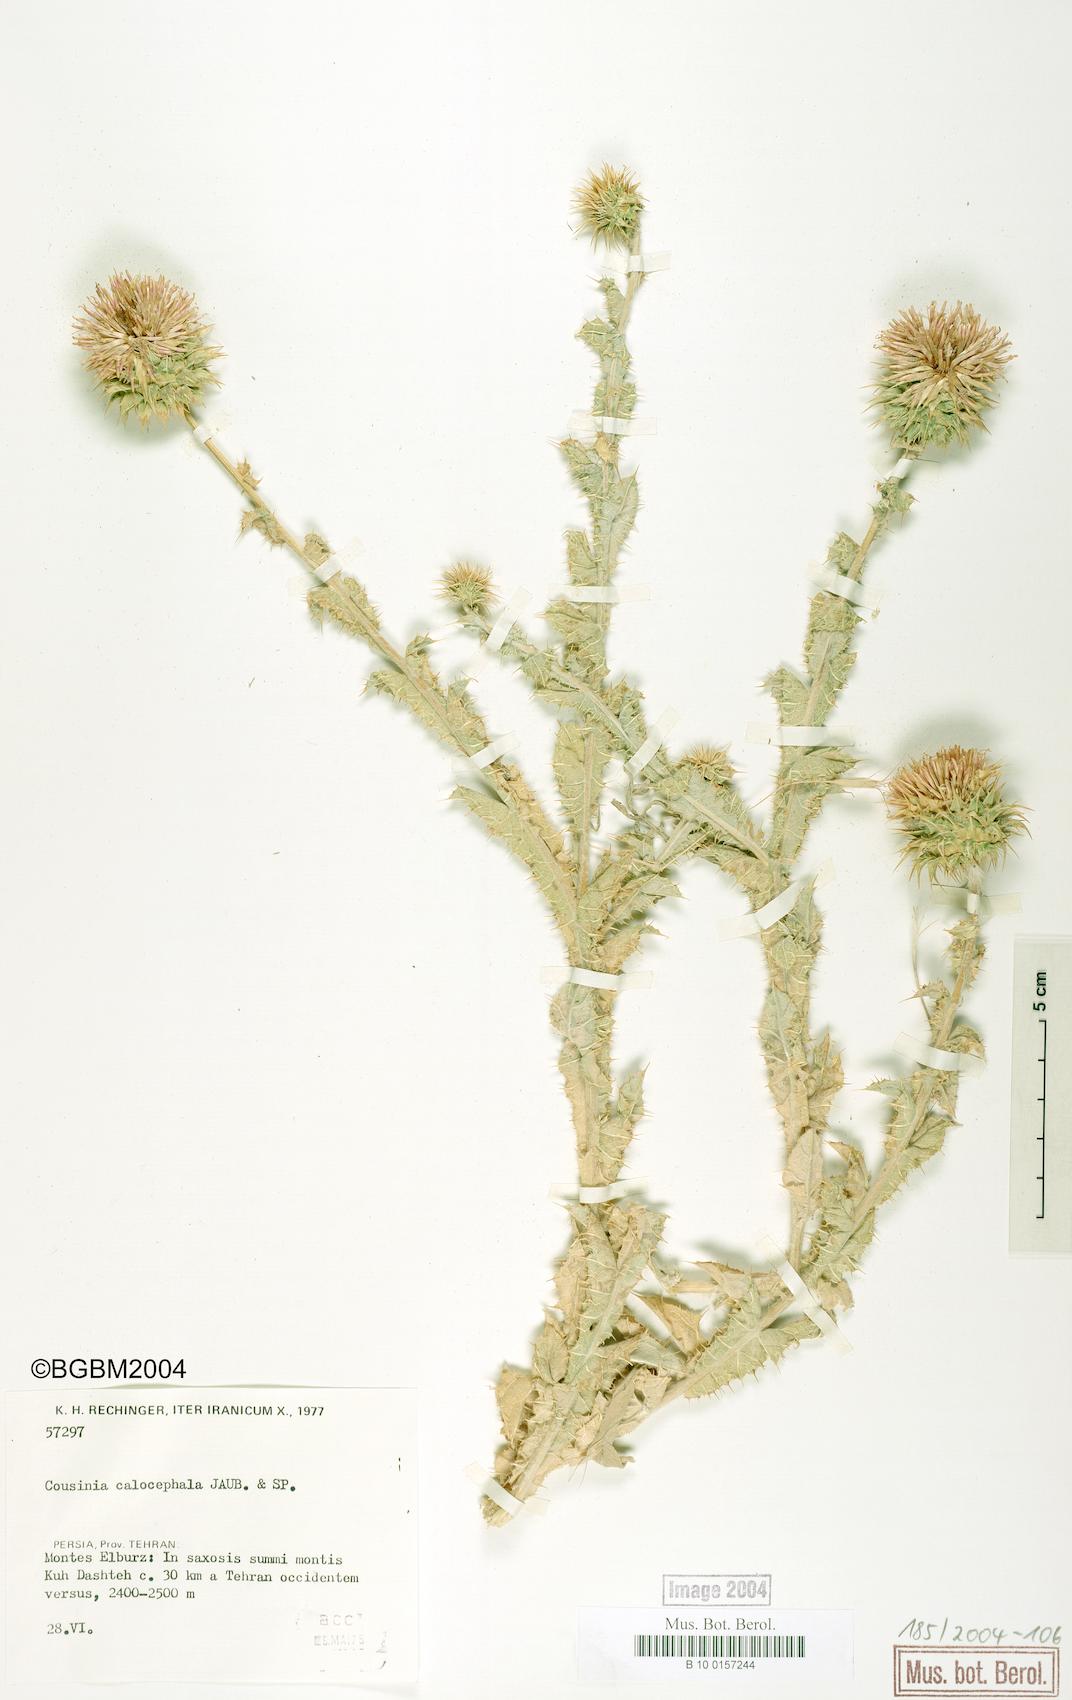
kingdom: Plantae
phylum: Tracheophyta
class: Magnoliopsida
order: Asterales
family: Asteraceae
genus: Cousinia
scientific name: Cousinia calocephala
